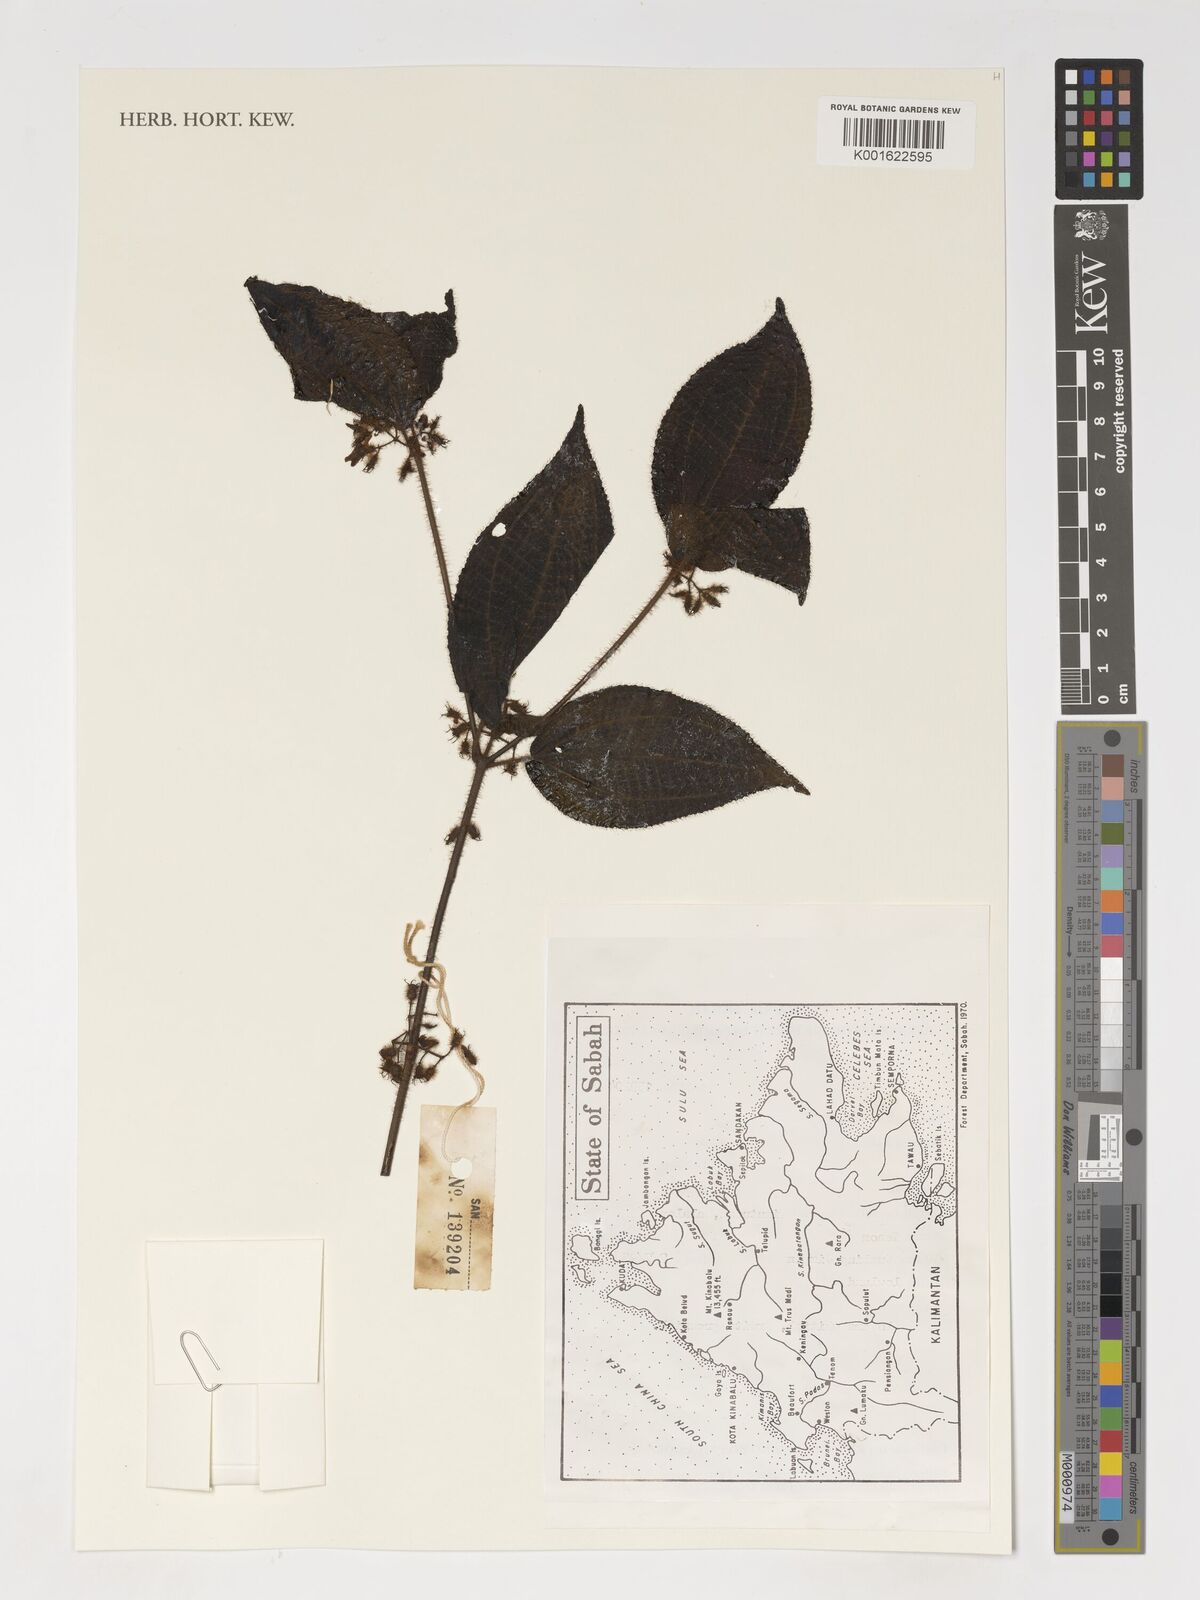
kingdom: Plantae
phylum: Tracheophyta
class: Magnoliopsida
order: Myrtales
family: Melastomataceae
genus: Miconia
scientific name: Miconia crenata
